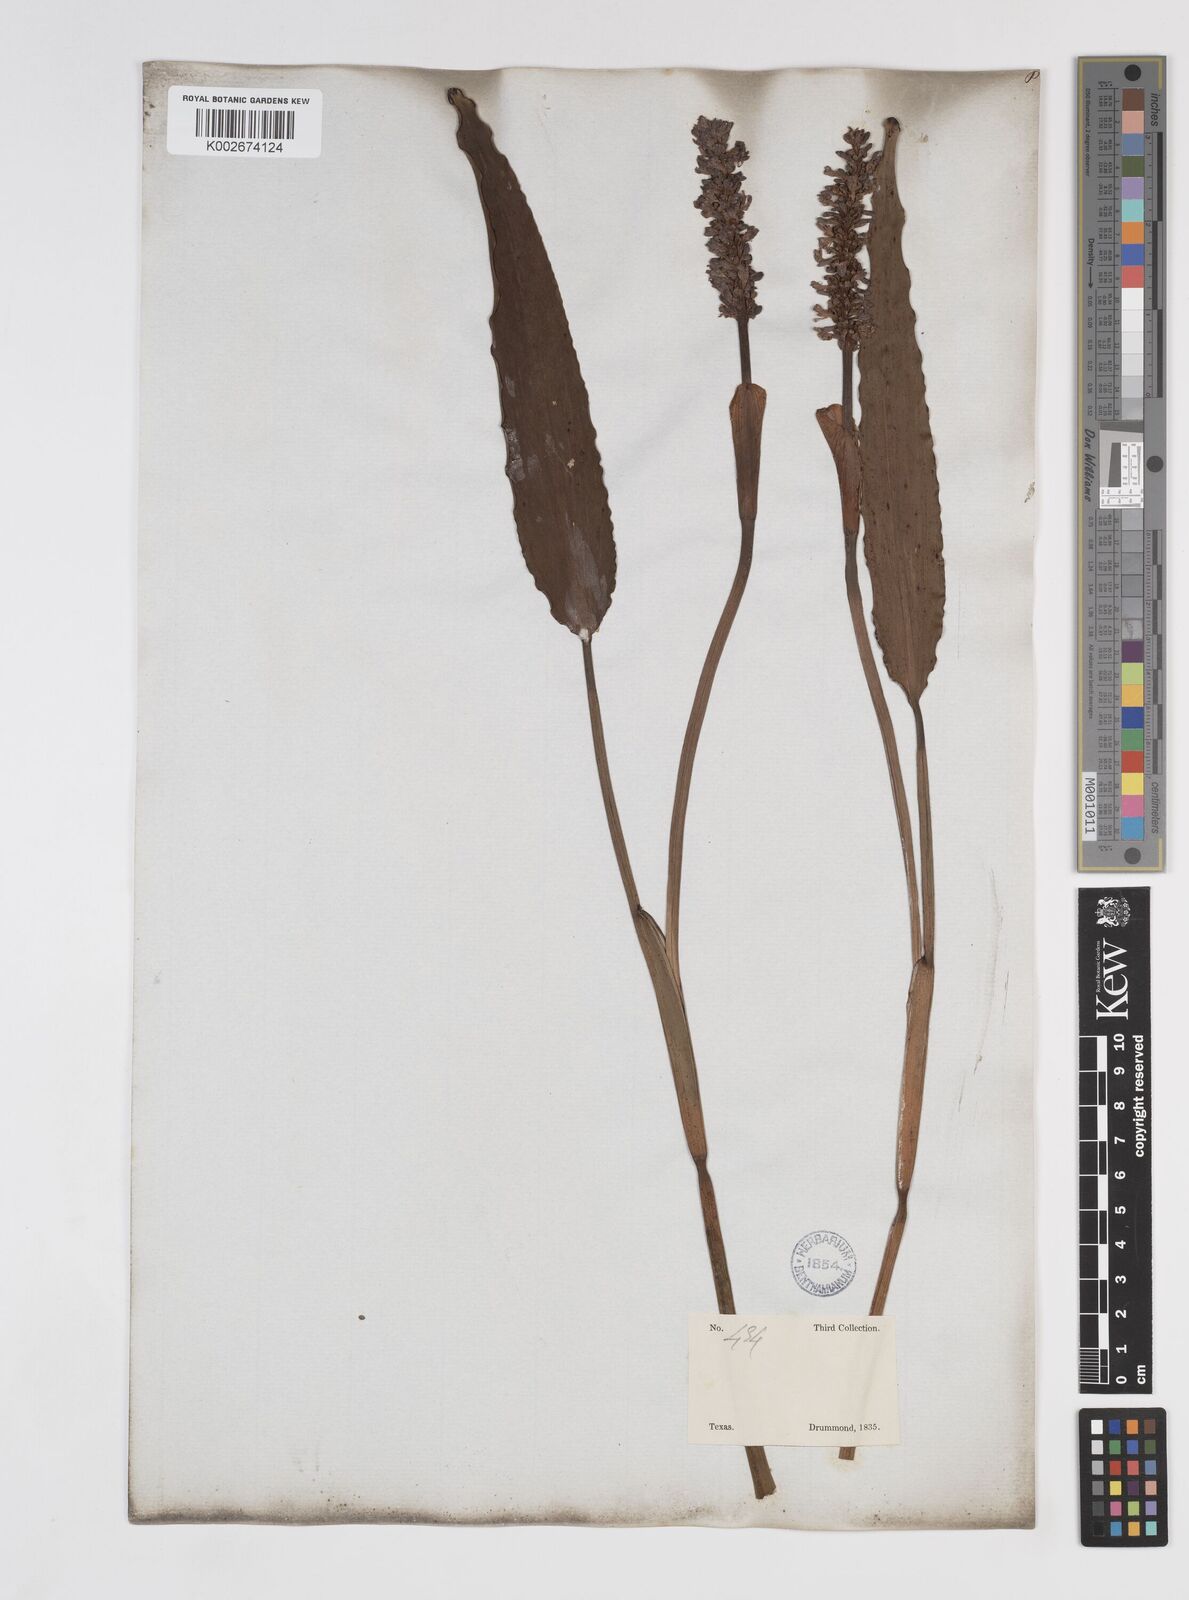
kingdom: Plantae
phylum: Tracheophyta
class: Liliopsida
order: Commelinales
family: Pontederiaceae
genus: Pontederia
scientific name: Pontederia cordata
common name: Pickerelweed
